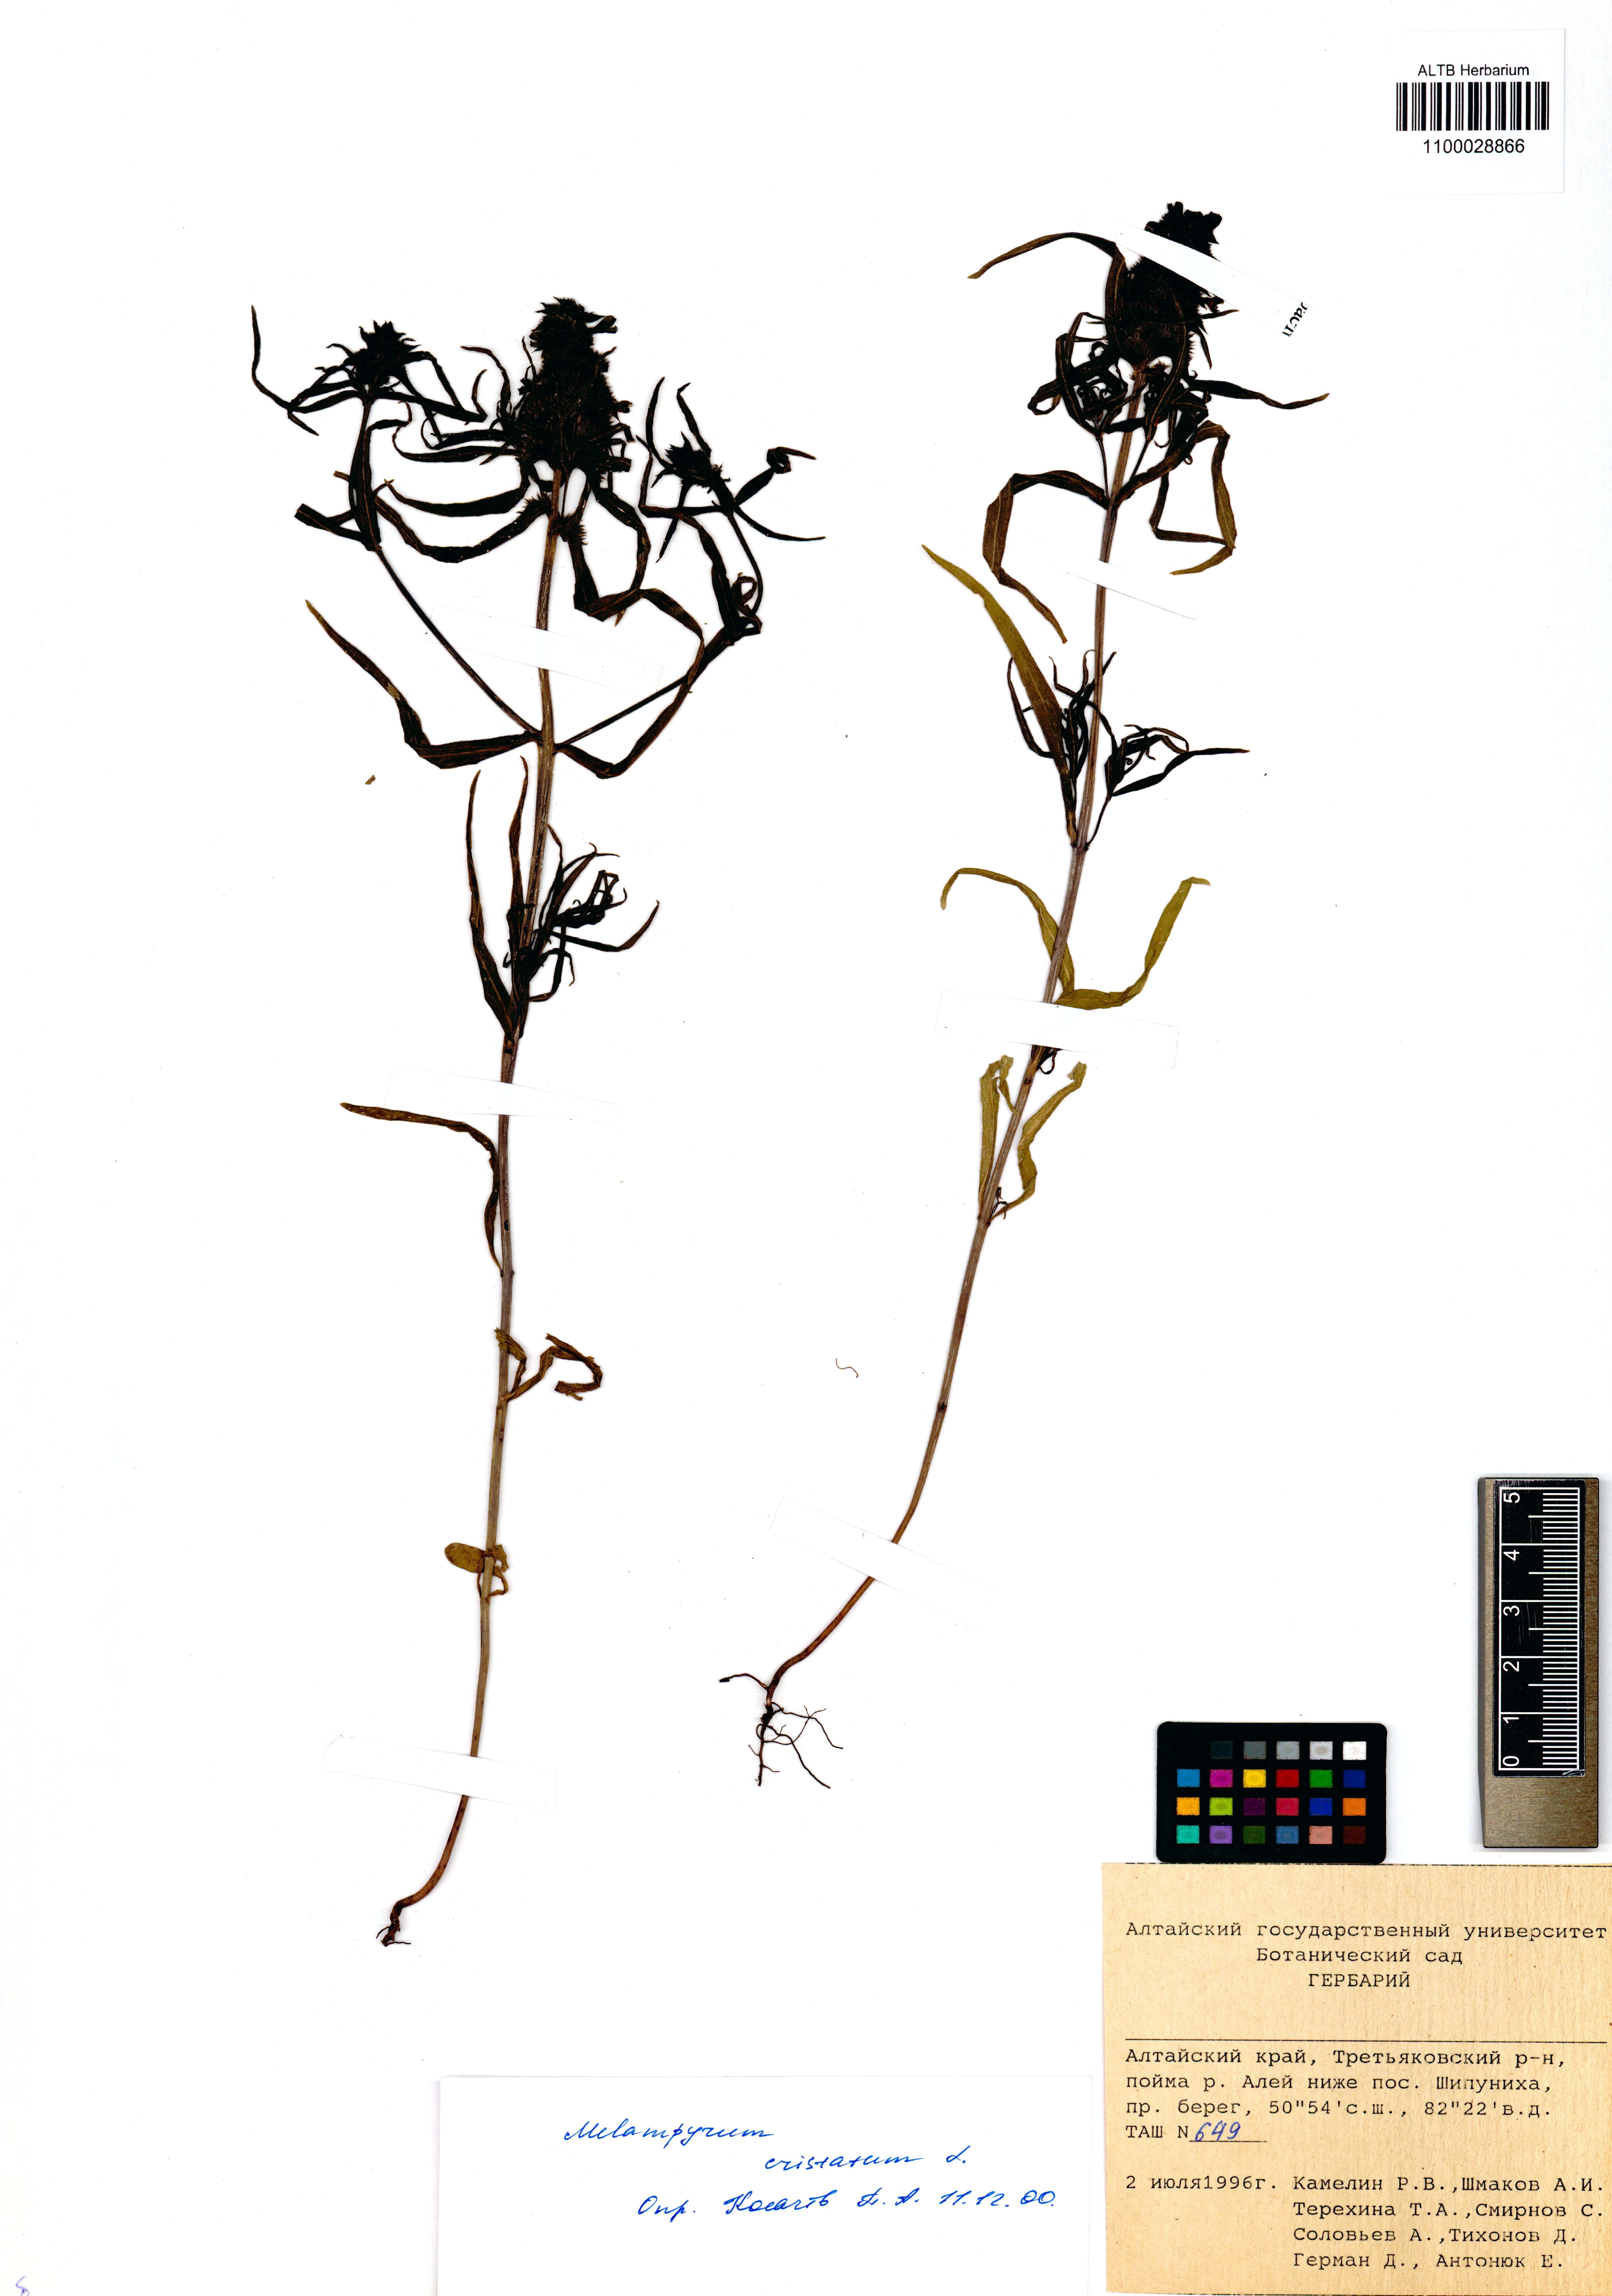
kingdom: Plantae
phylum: Tracheophyta
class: Magnoliopsida
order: Lamiales
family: Orobanchaceae
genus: Melampyrum
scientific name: Melampyrum cristatum
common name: Crested cow-wheat
